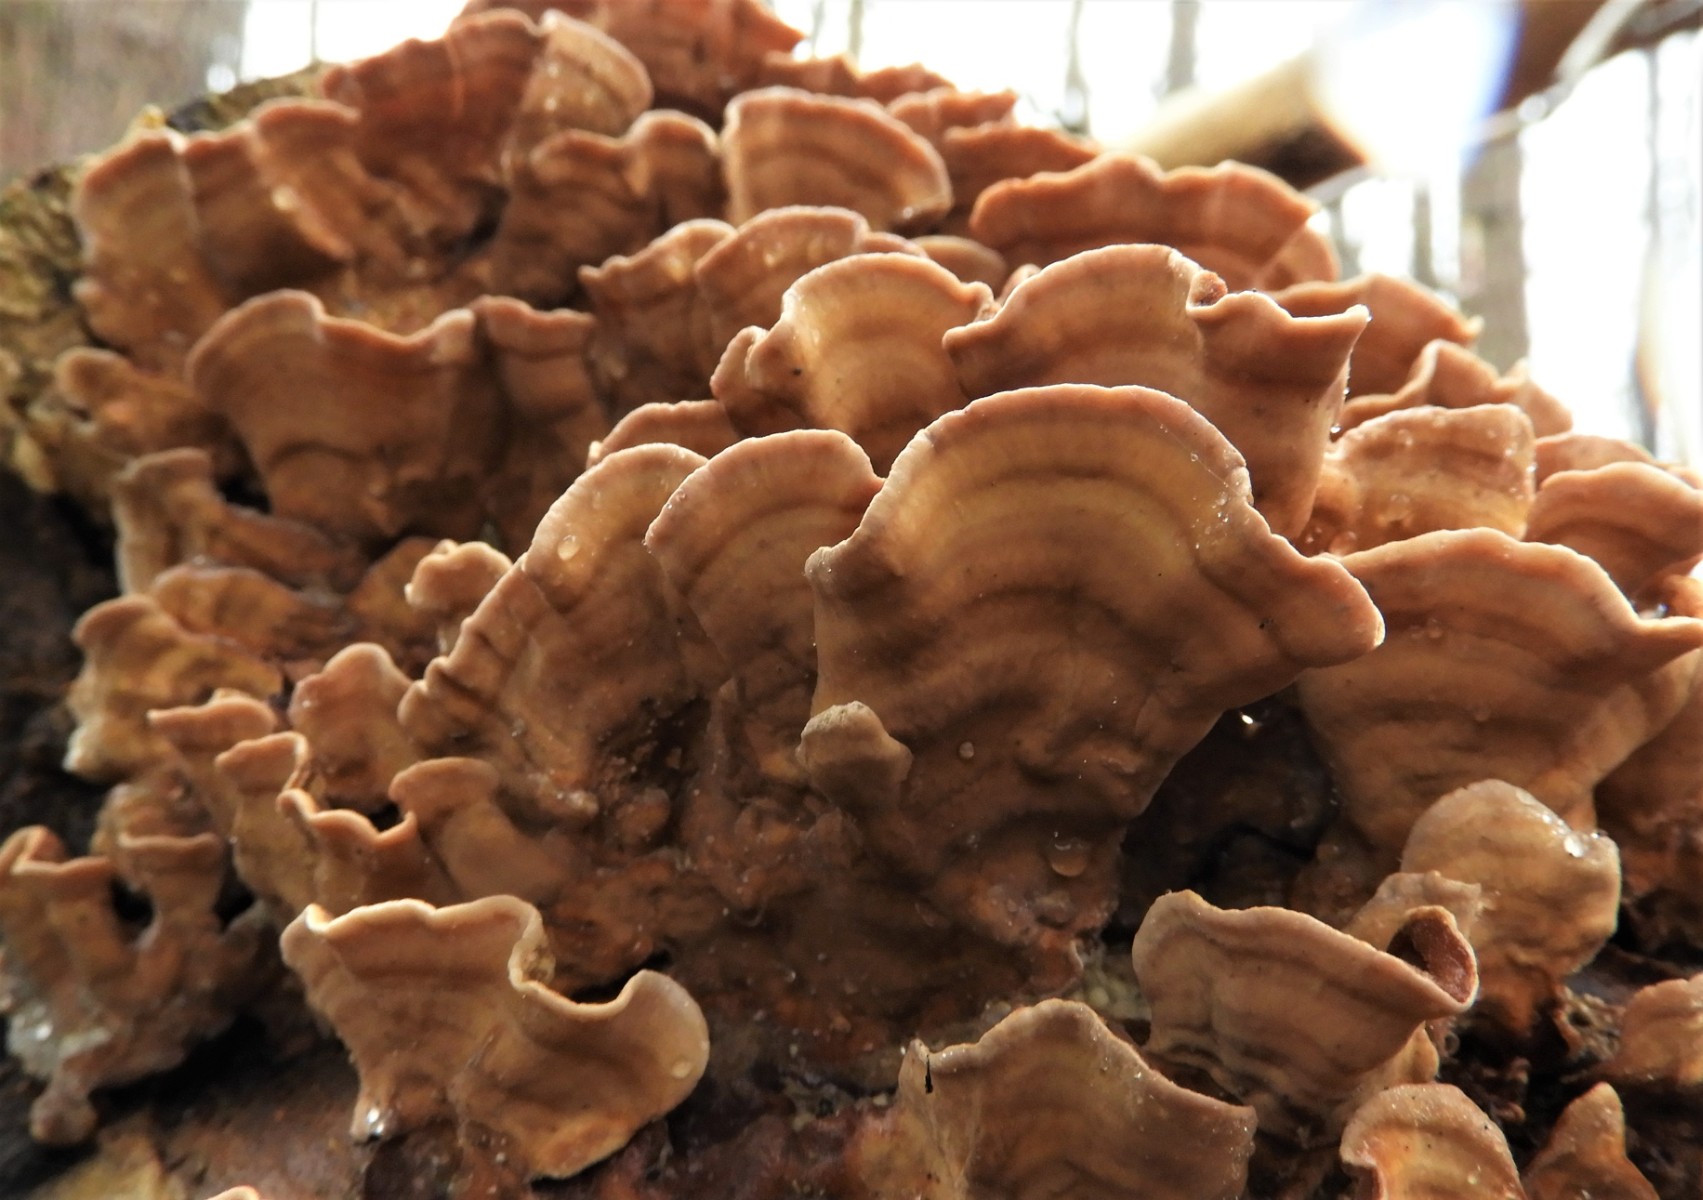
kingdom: Fungi
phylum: Basidiomycota
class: Agaricomycetes
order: Russulales
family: Stereaceae
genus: Stereum
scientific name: Stereum hirsutum
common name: håret lædersvamp
